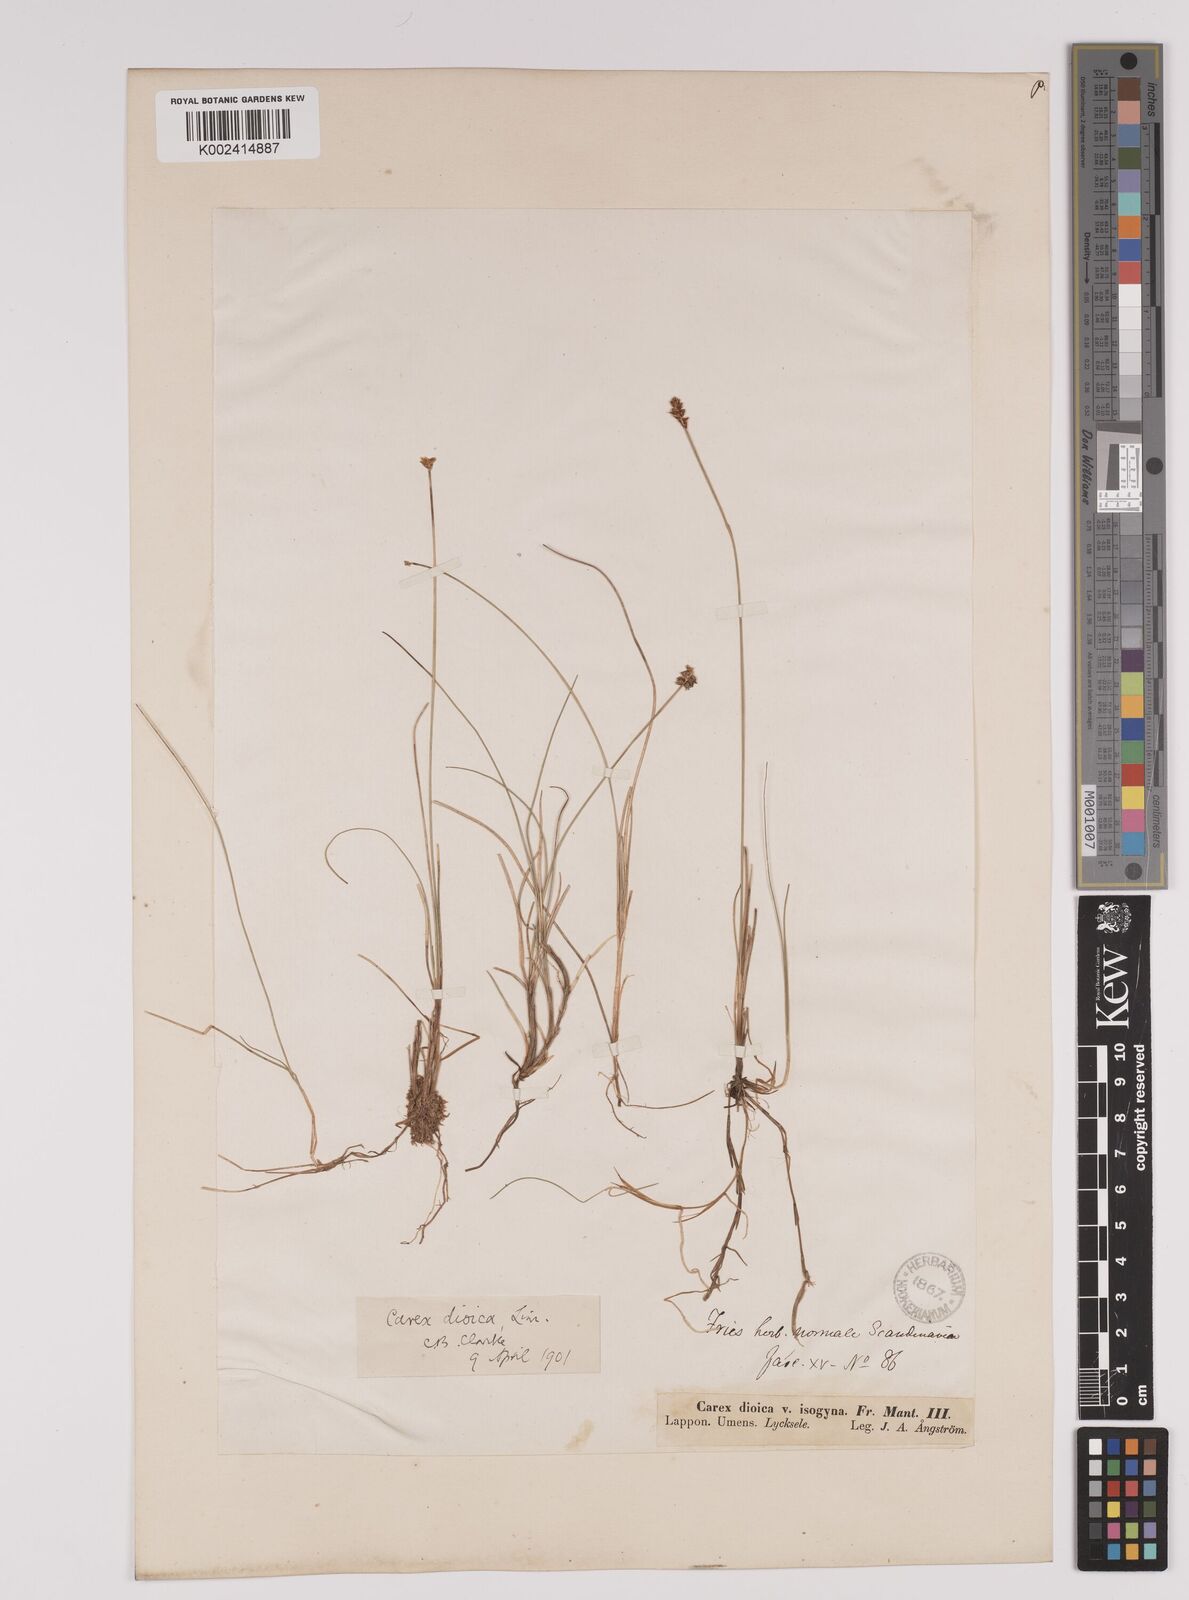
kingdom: Plantae
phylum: Tracheophyta
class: Liliopsida
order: Poales
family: Cyperaceae
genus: Carex
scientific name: Carex dioica
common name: Dioecious sedge
